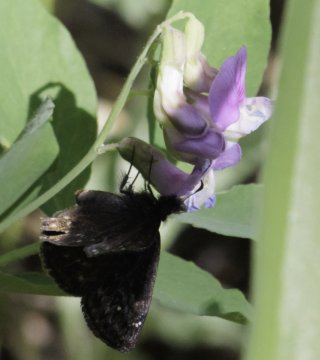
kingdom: Animalia
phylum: Arthropoda
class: Insecta
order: Lepidoptera
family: Hesperiidae
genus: Gesta
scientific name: Gesta
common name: Persius Duskywing
